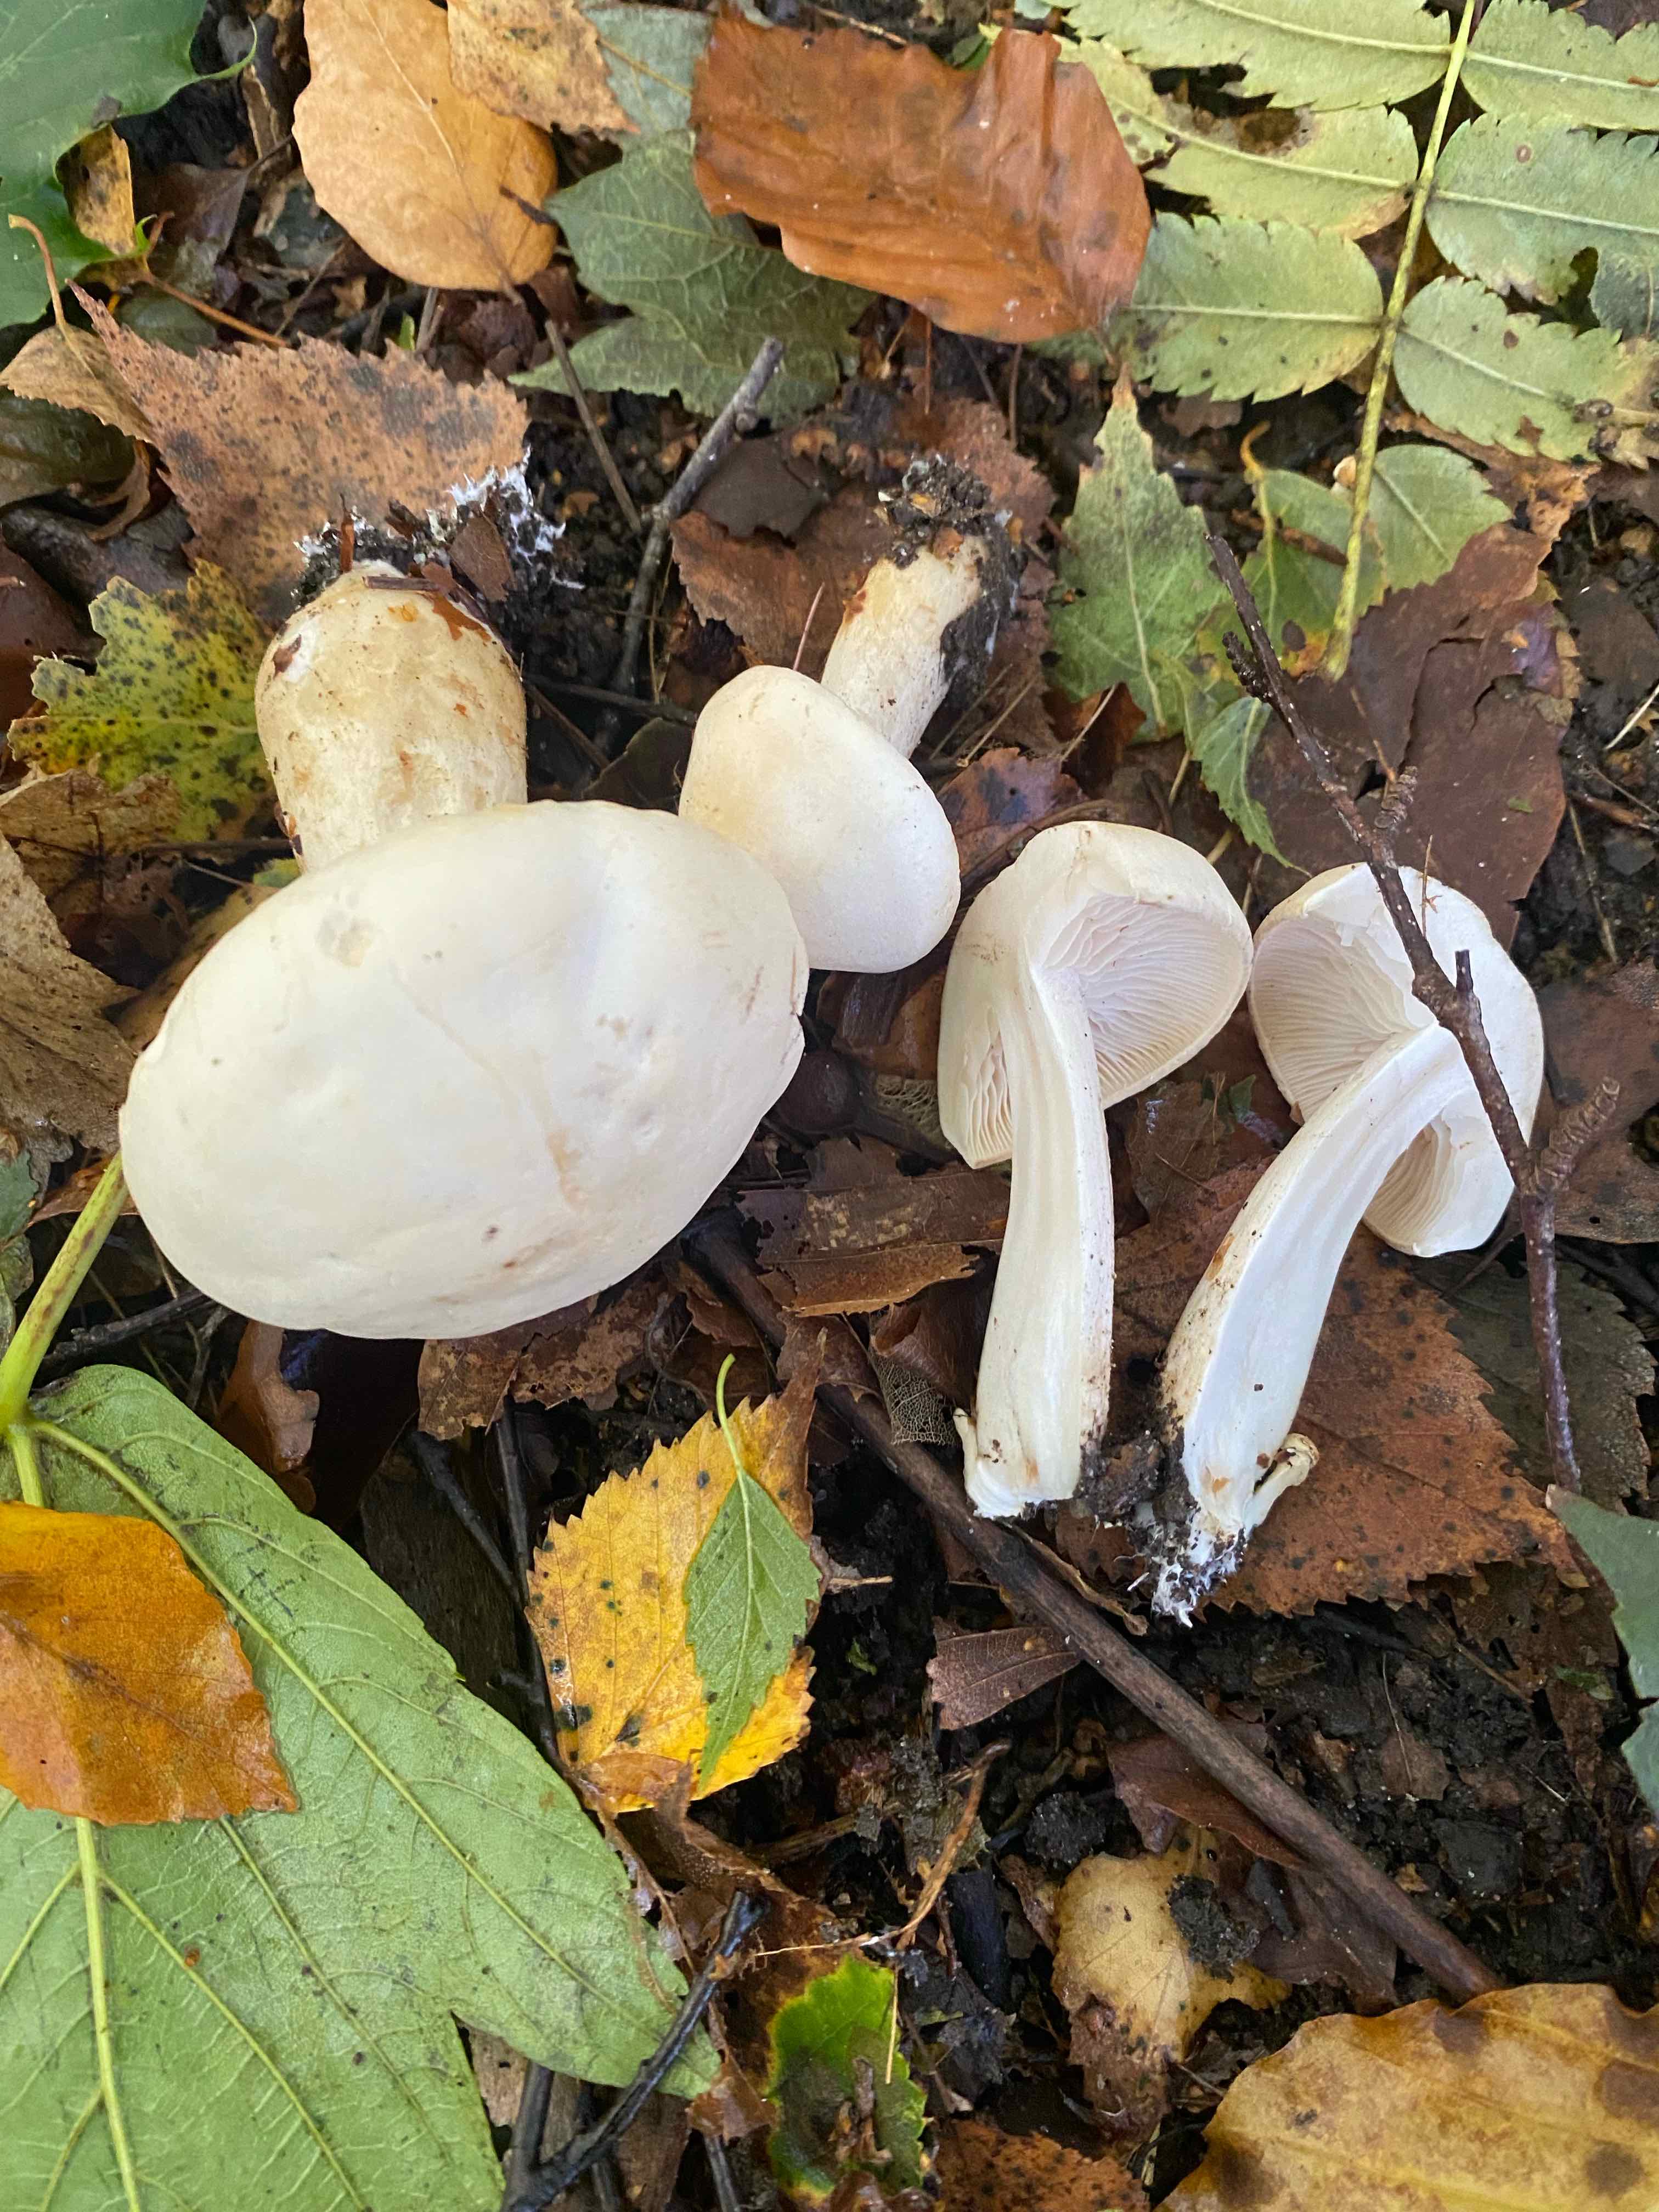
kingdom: Fungi
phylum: Basidiomycota
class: Agaricomycetes
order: Agaricales
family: Tricholomataceae
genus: Tricholoma
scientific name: Tricholoma stiparophyllum
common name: hvid ridderhat
